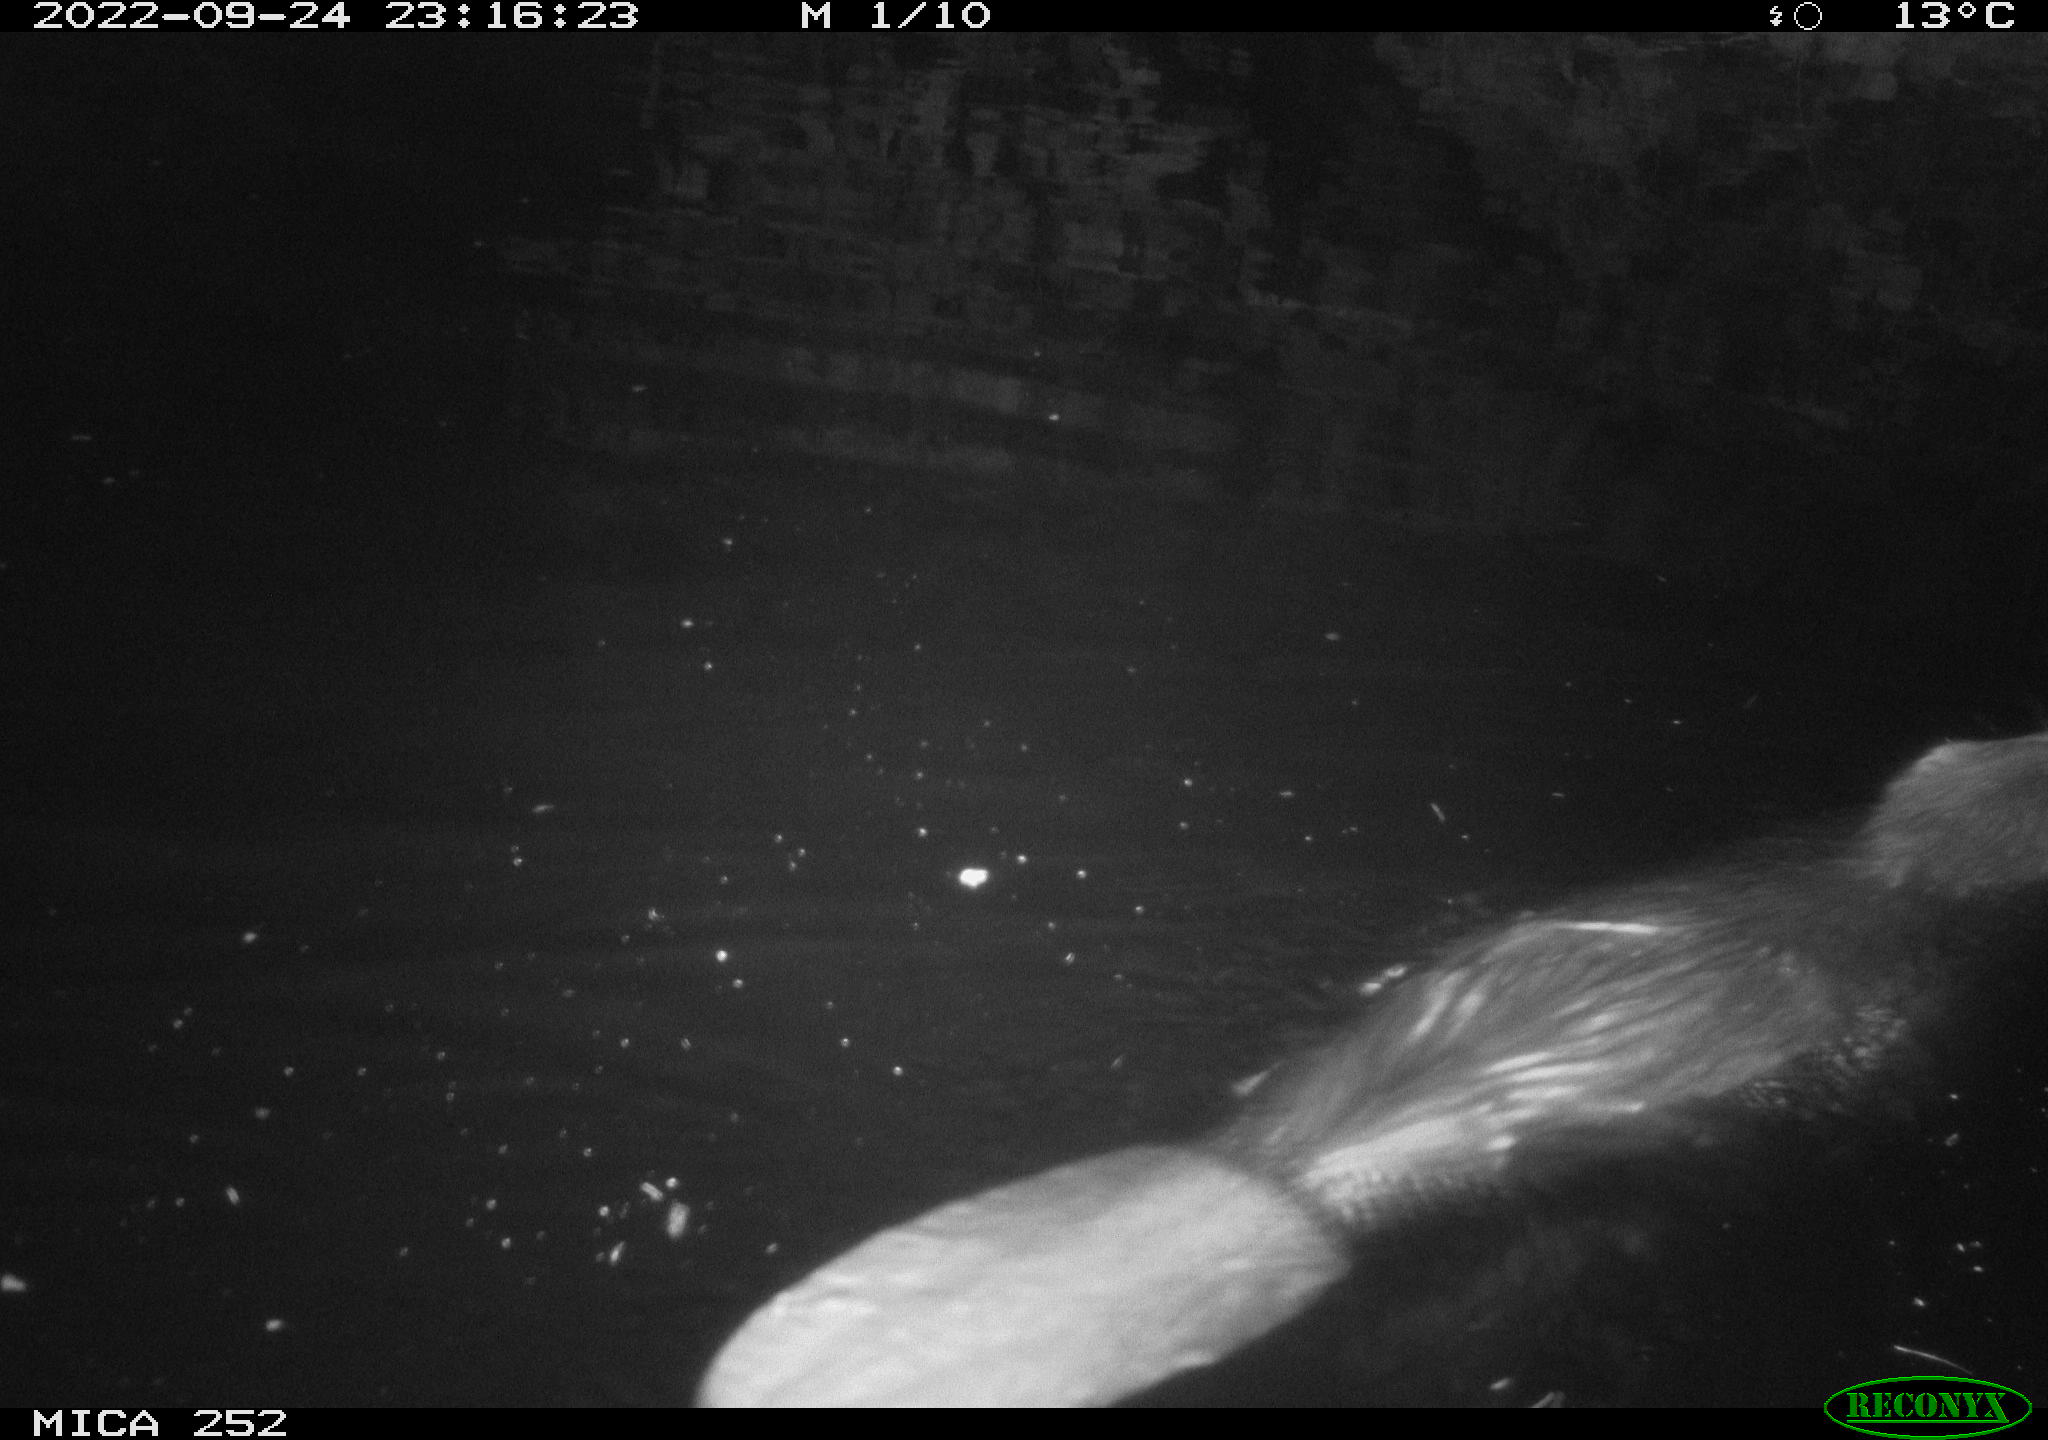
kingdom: Animalia
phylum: Chordata
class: Mammalia
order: Rodentia
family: Castoridae
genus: Castor
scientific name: Castor fiber
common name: Eurasian beaver
